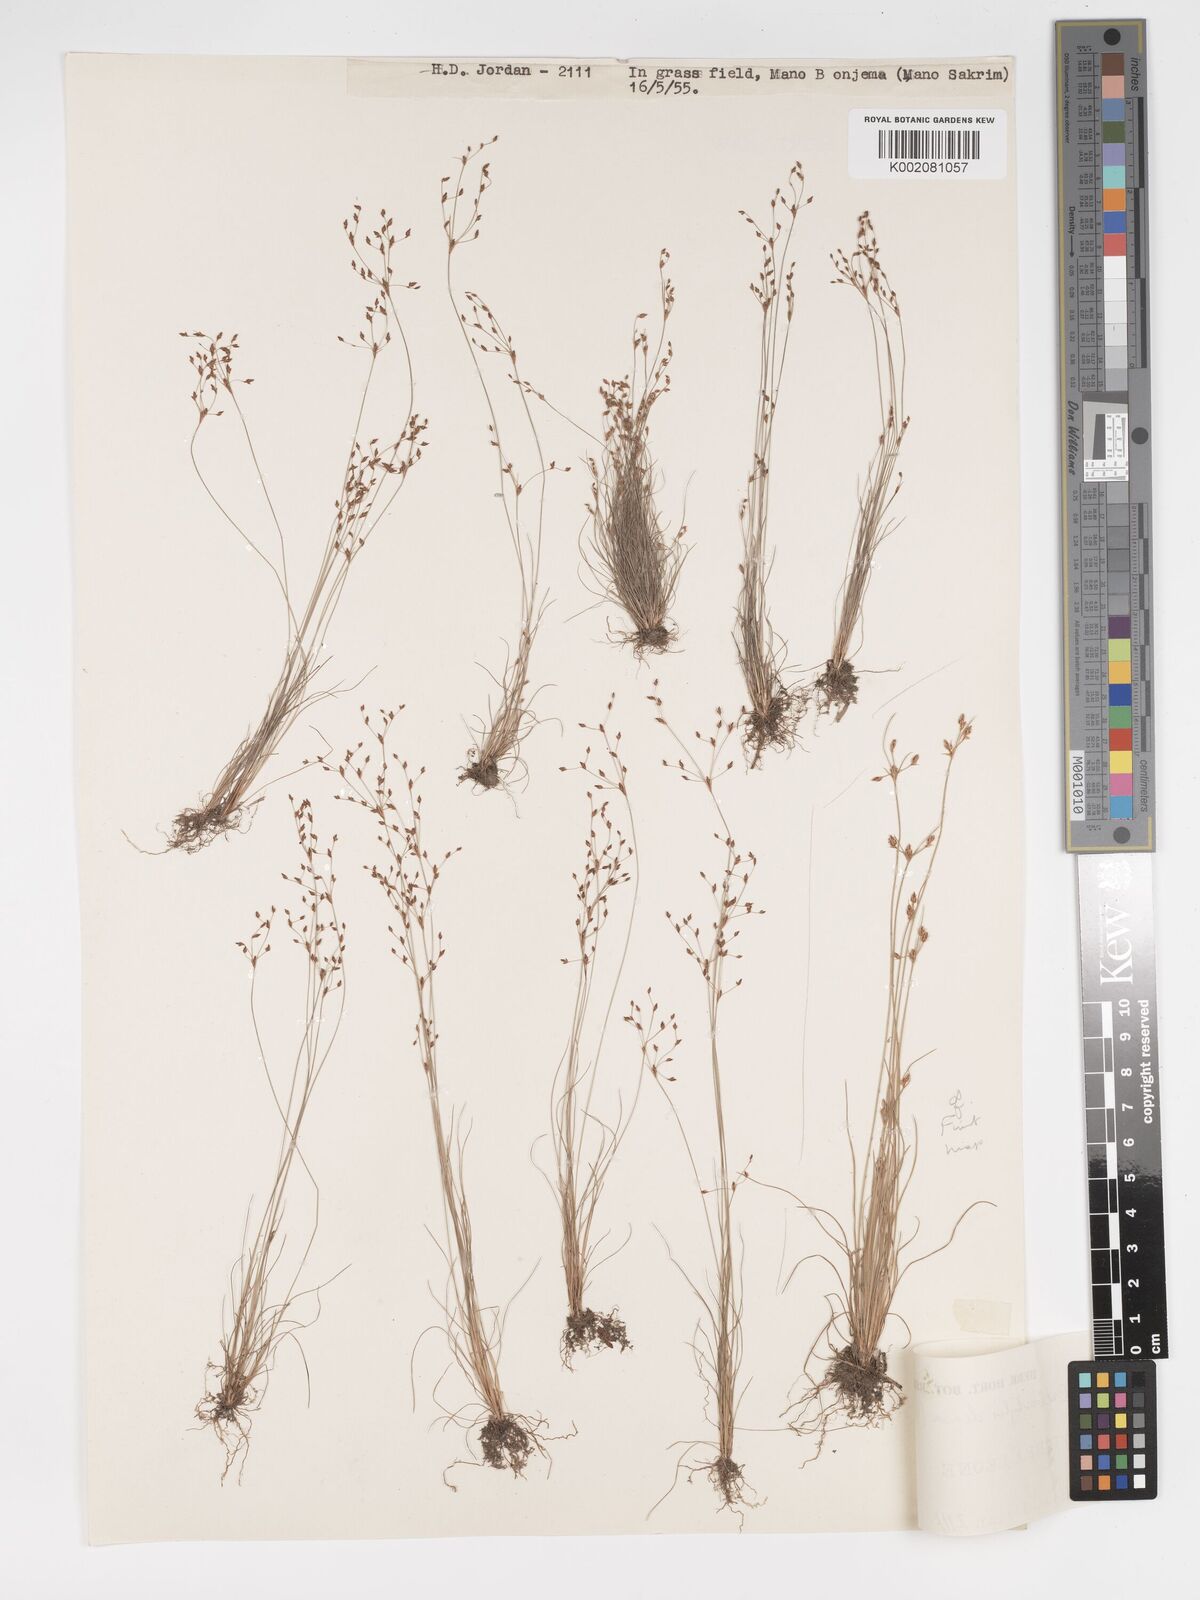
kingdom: Plantae
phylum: Tracheophyta
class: Liliopsida
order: Poales
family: Cyperaceae
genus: Bulbostylis
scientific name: Bulbostylis densa
